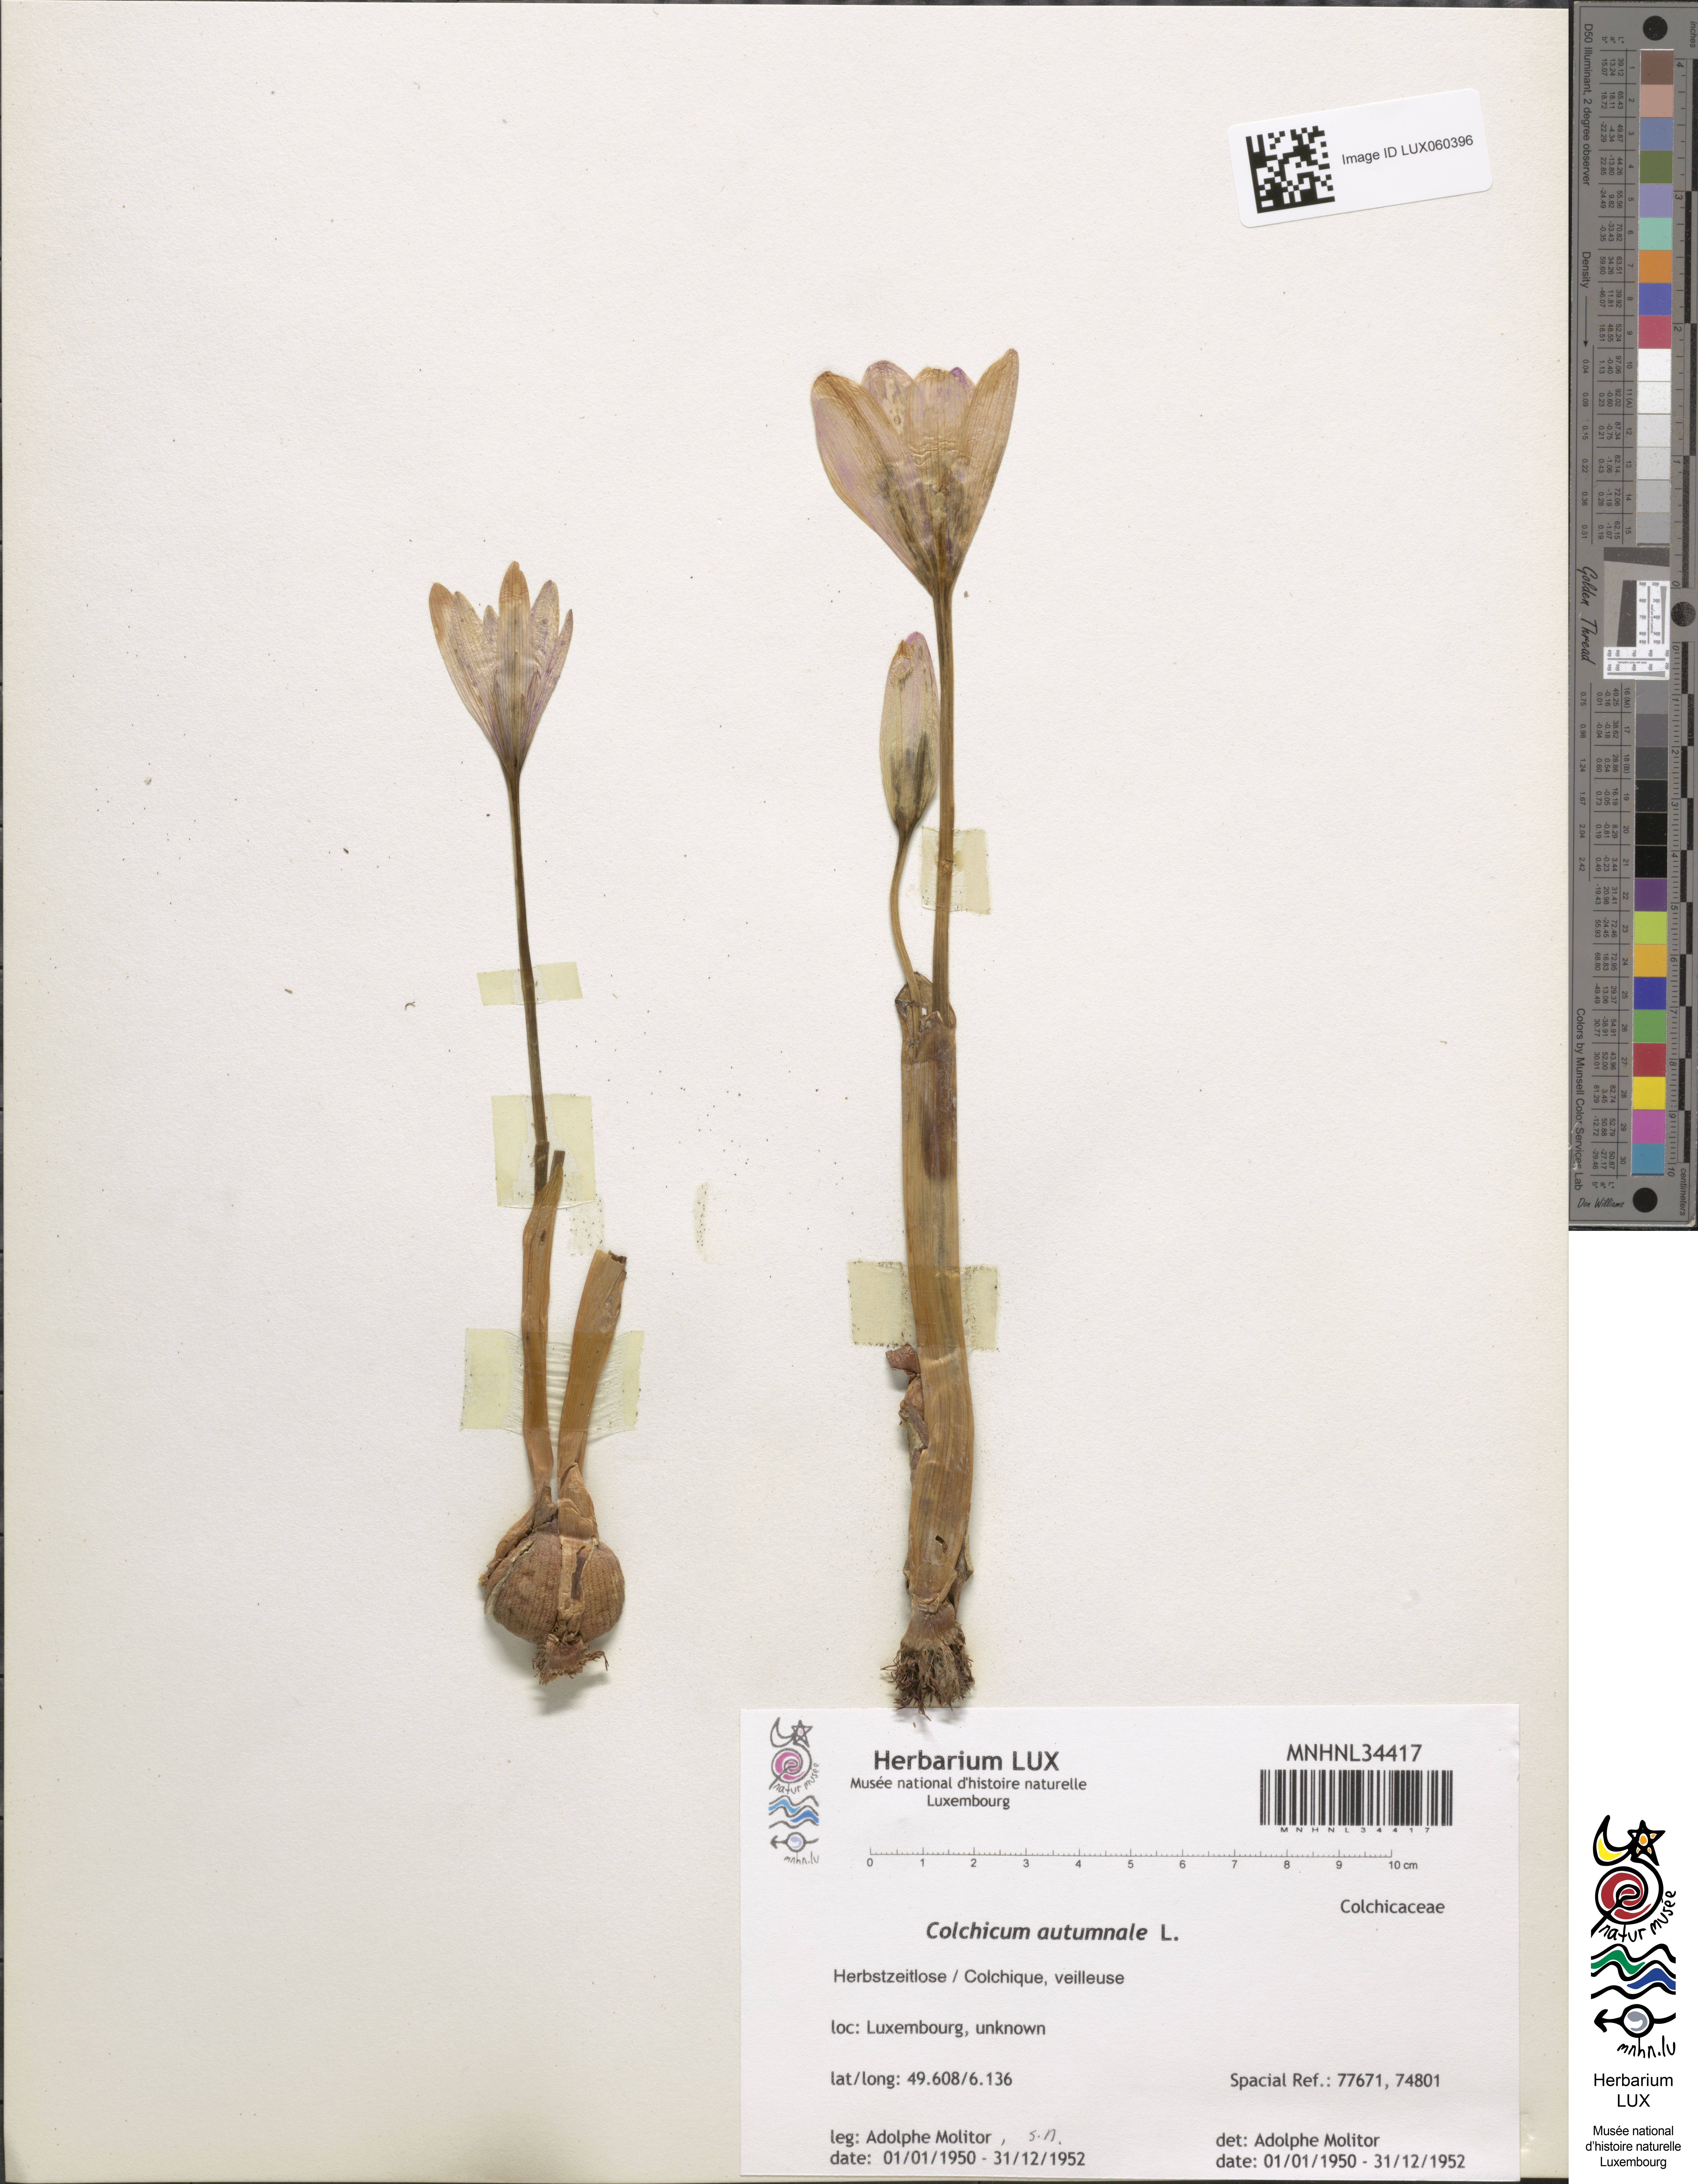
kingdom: Plantae
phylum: Tracheophyta
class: Liliopsida
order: Liliales
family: Colchicaceae
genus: Colchicum
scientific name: Colchicum autumnale
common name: Autumn crocus
